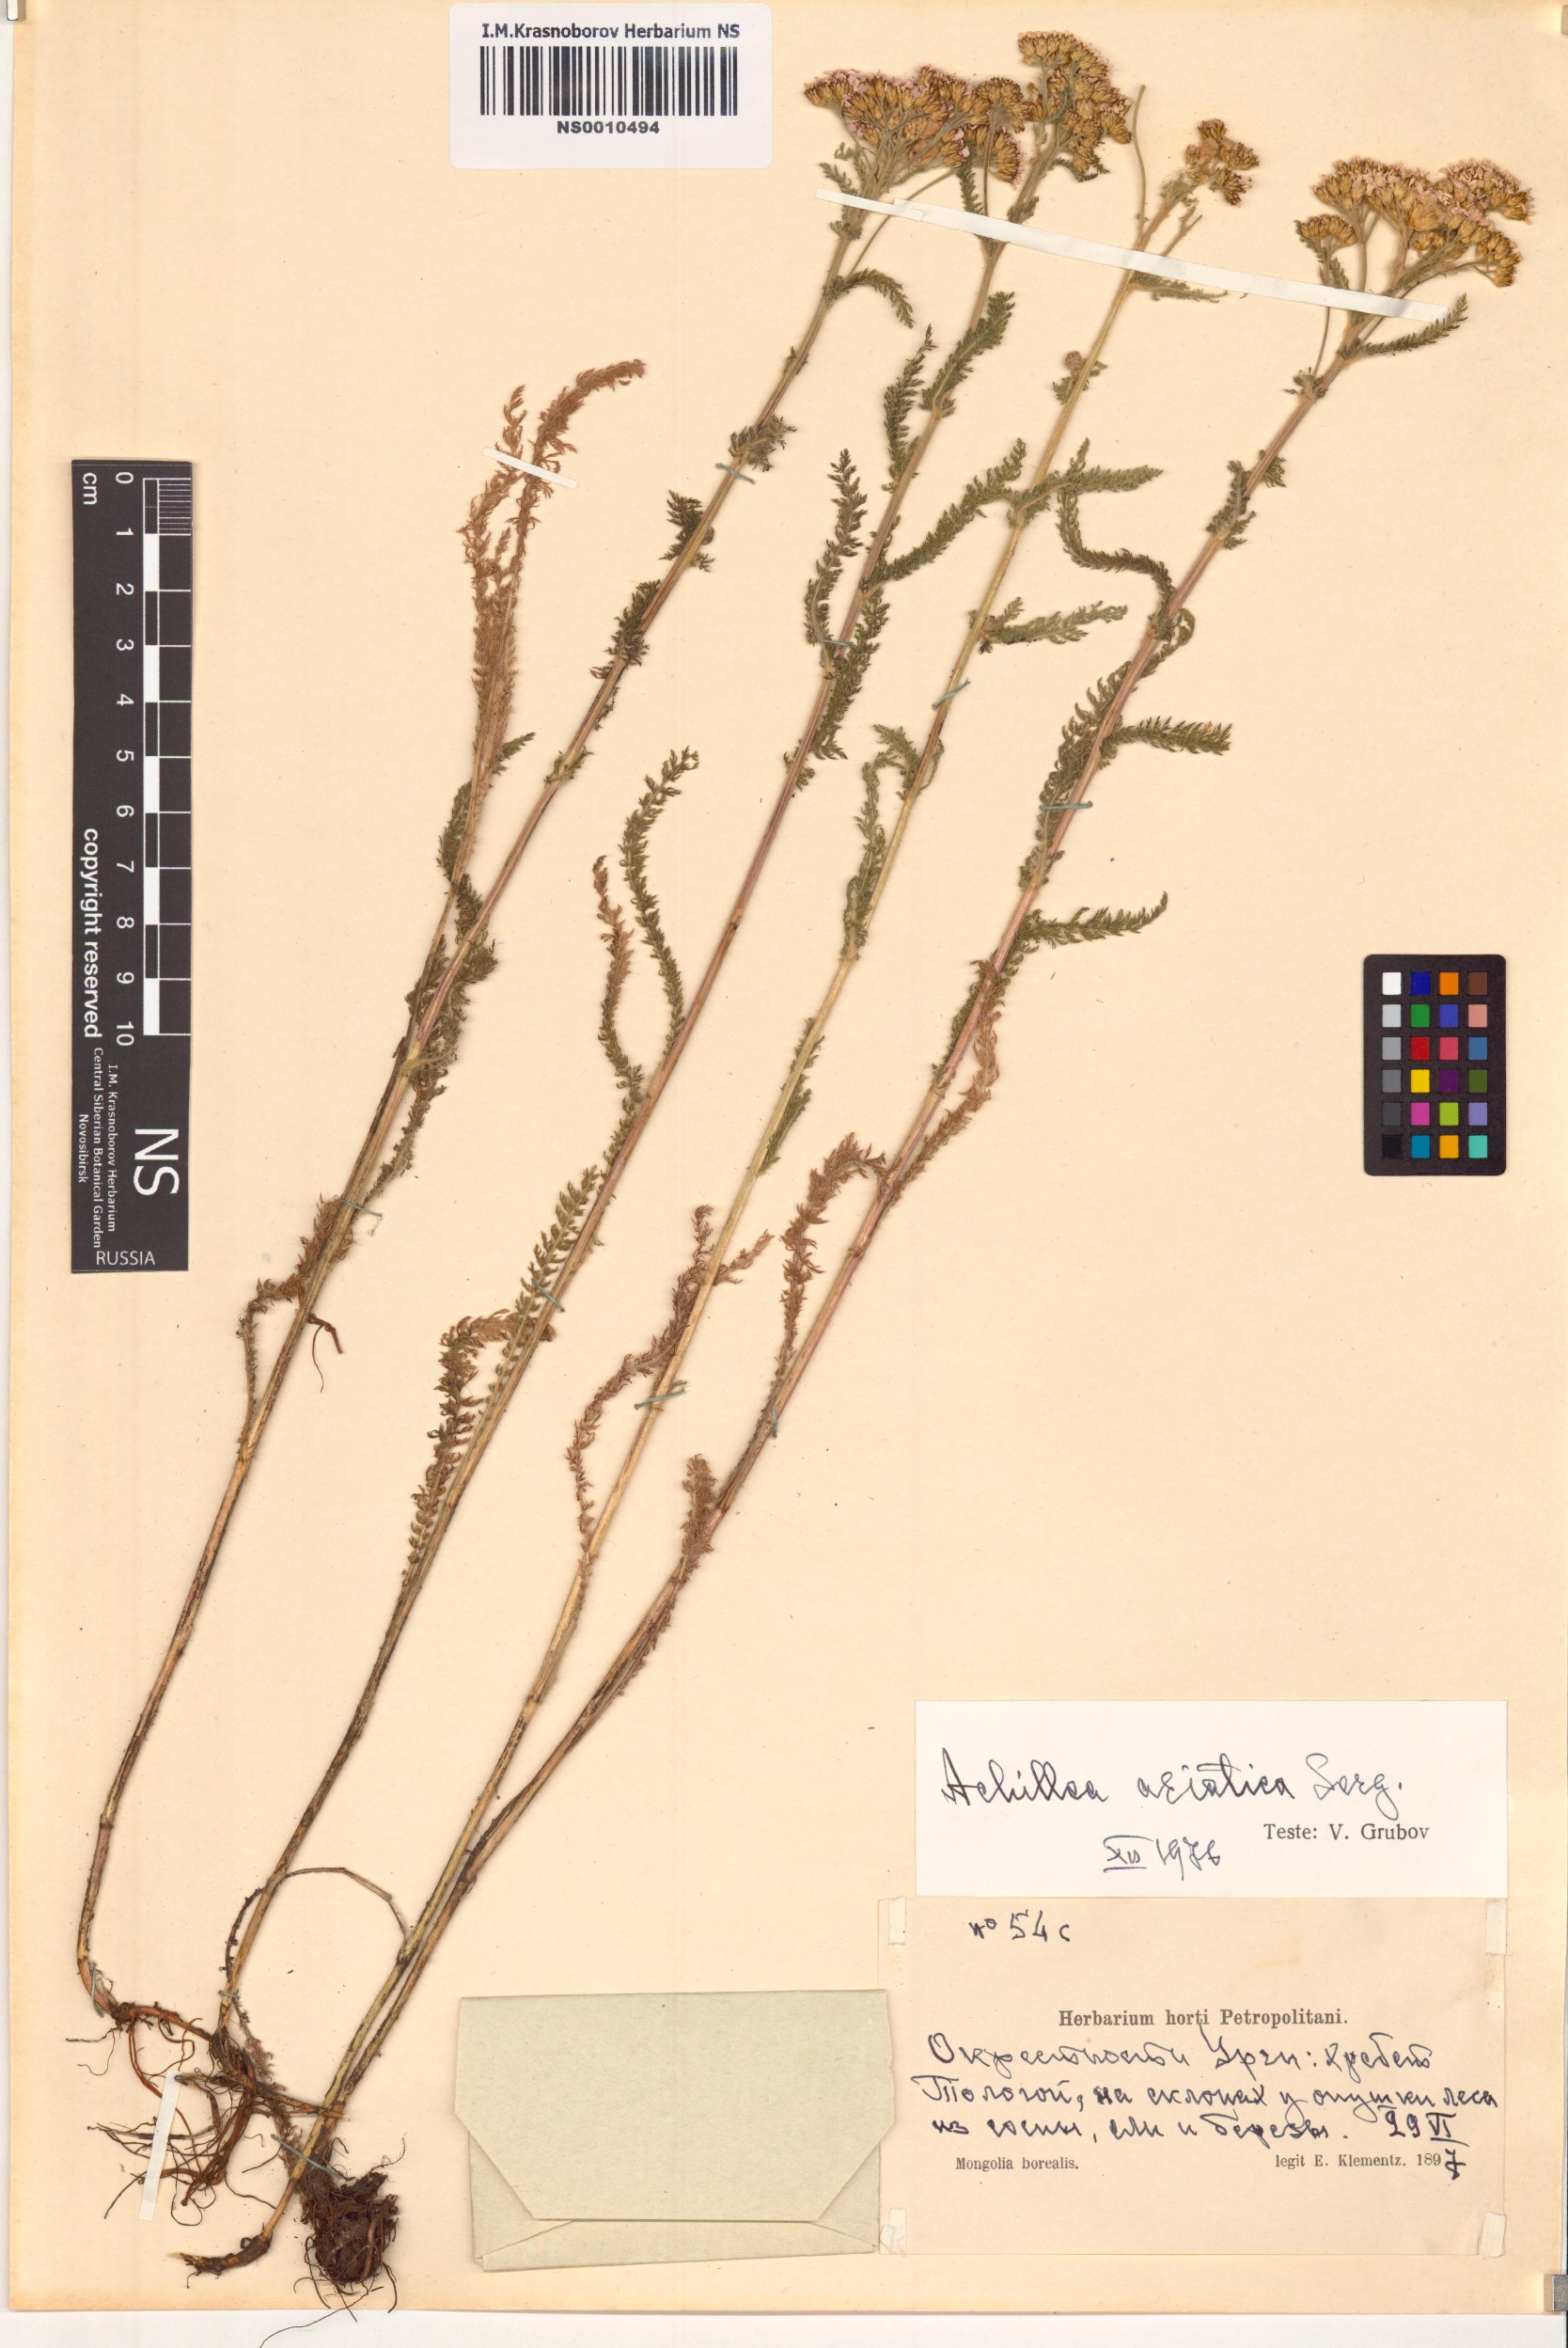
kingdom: Plantae
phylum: Tracheophyta
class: Magnoliopsida
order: Asterales
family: Asteraceae
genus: Achillea
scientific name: Achillea asiatica
